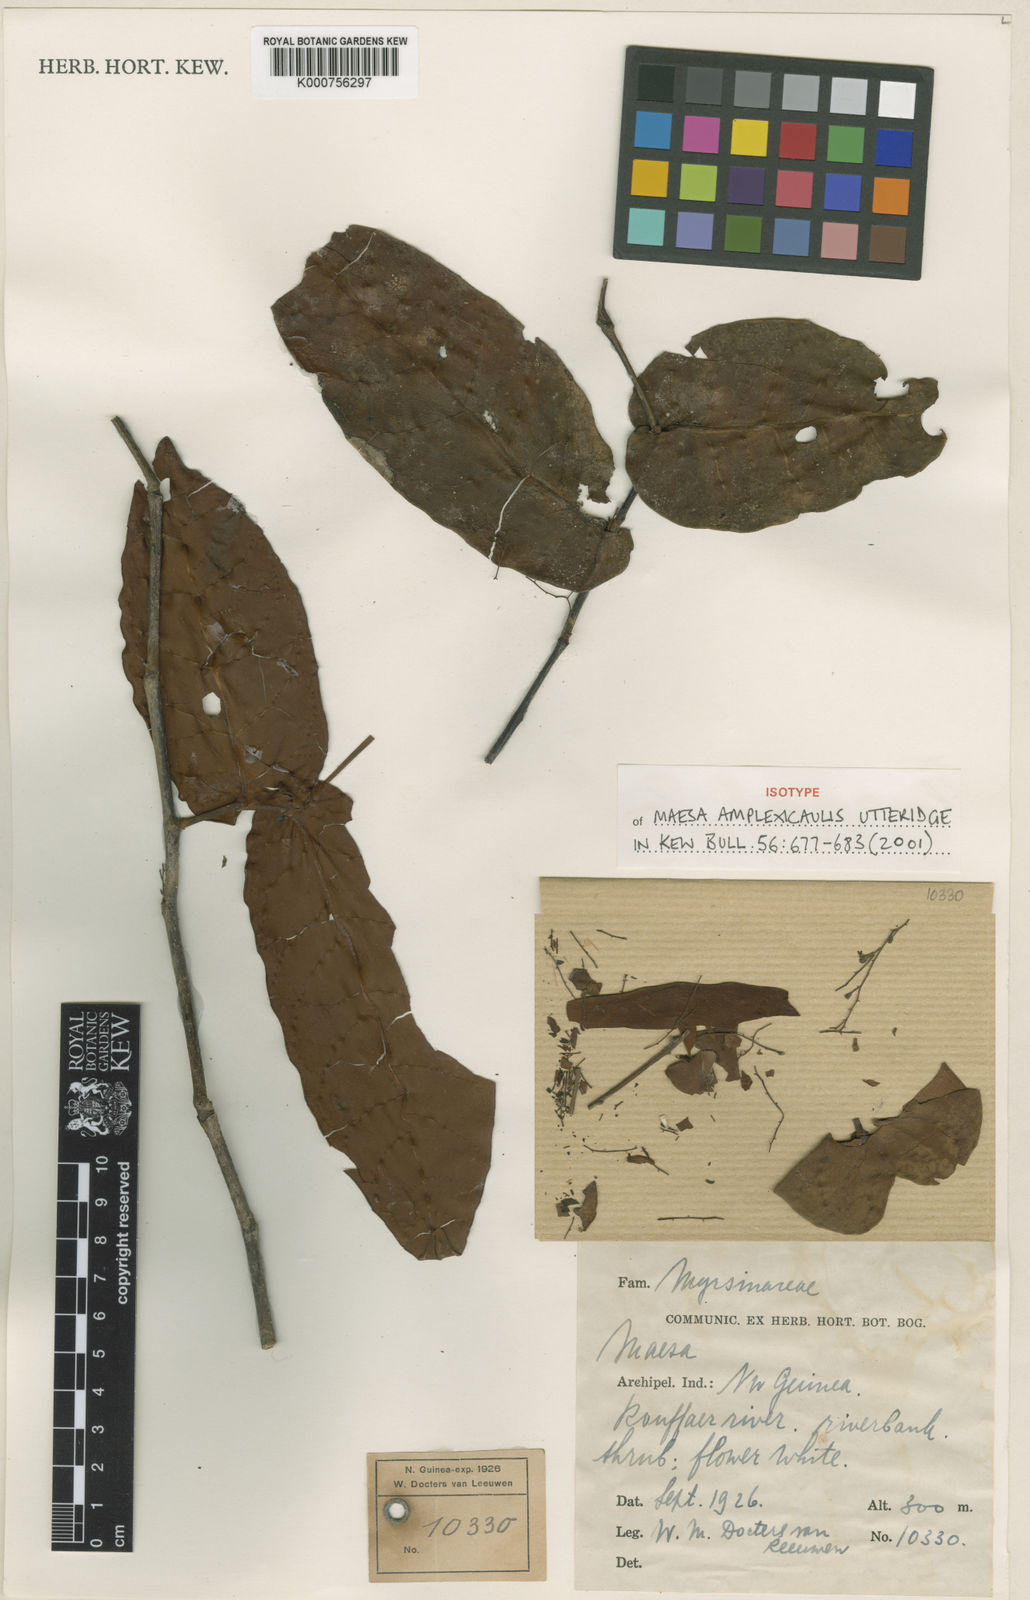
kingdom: Plantae
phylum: Tracheophyta
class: Magnoliopsida
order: Ericales
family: Primulaceae
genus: Maesa
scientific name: Maesa amplexicaulis
